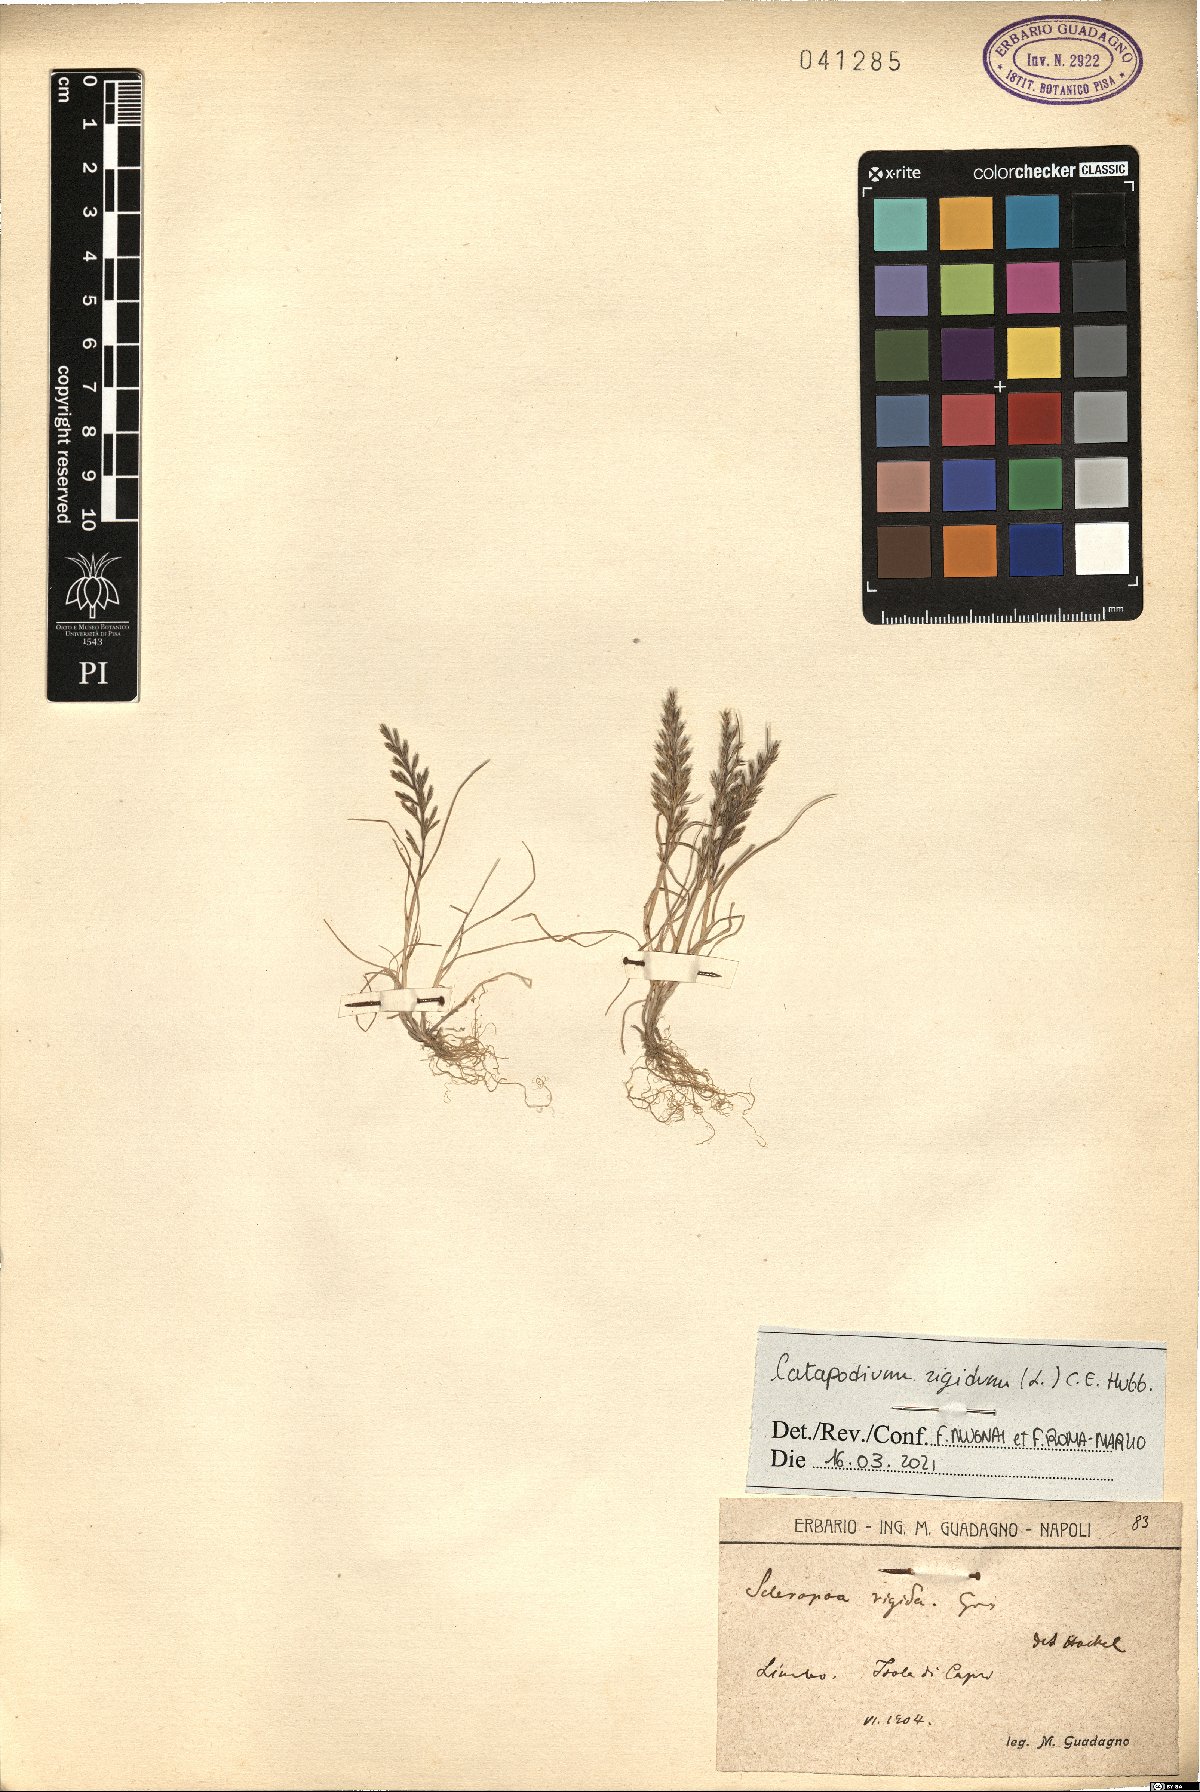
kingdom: Plantae
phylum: Tracheophyta
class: Liliopsida
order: Poales
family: Poaceae
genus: Catapodium
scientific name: Catapodium rigidum
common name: Fern-grass
